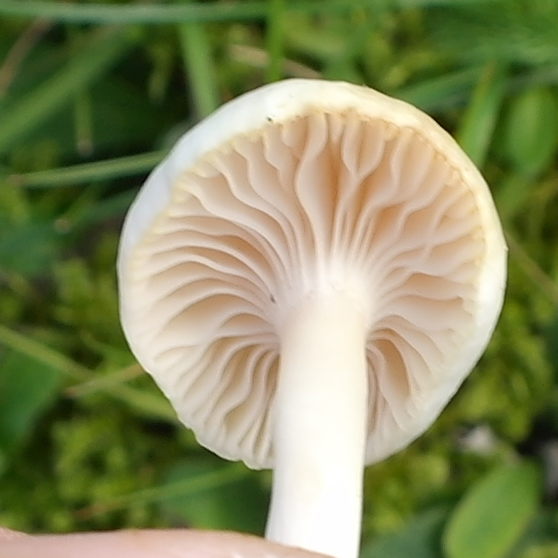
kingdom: Fungi
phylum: Basidiomycota
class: Agaricomycetes
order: Agaricales
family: Hygrophoraceae
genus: Cuphophyllus
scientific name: Cuphophyllus virgineus
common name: snehvid vokshat
